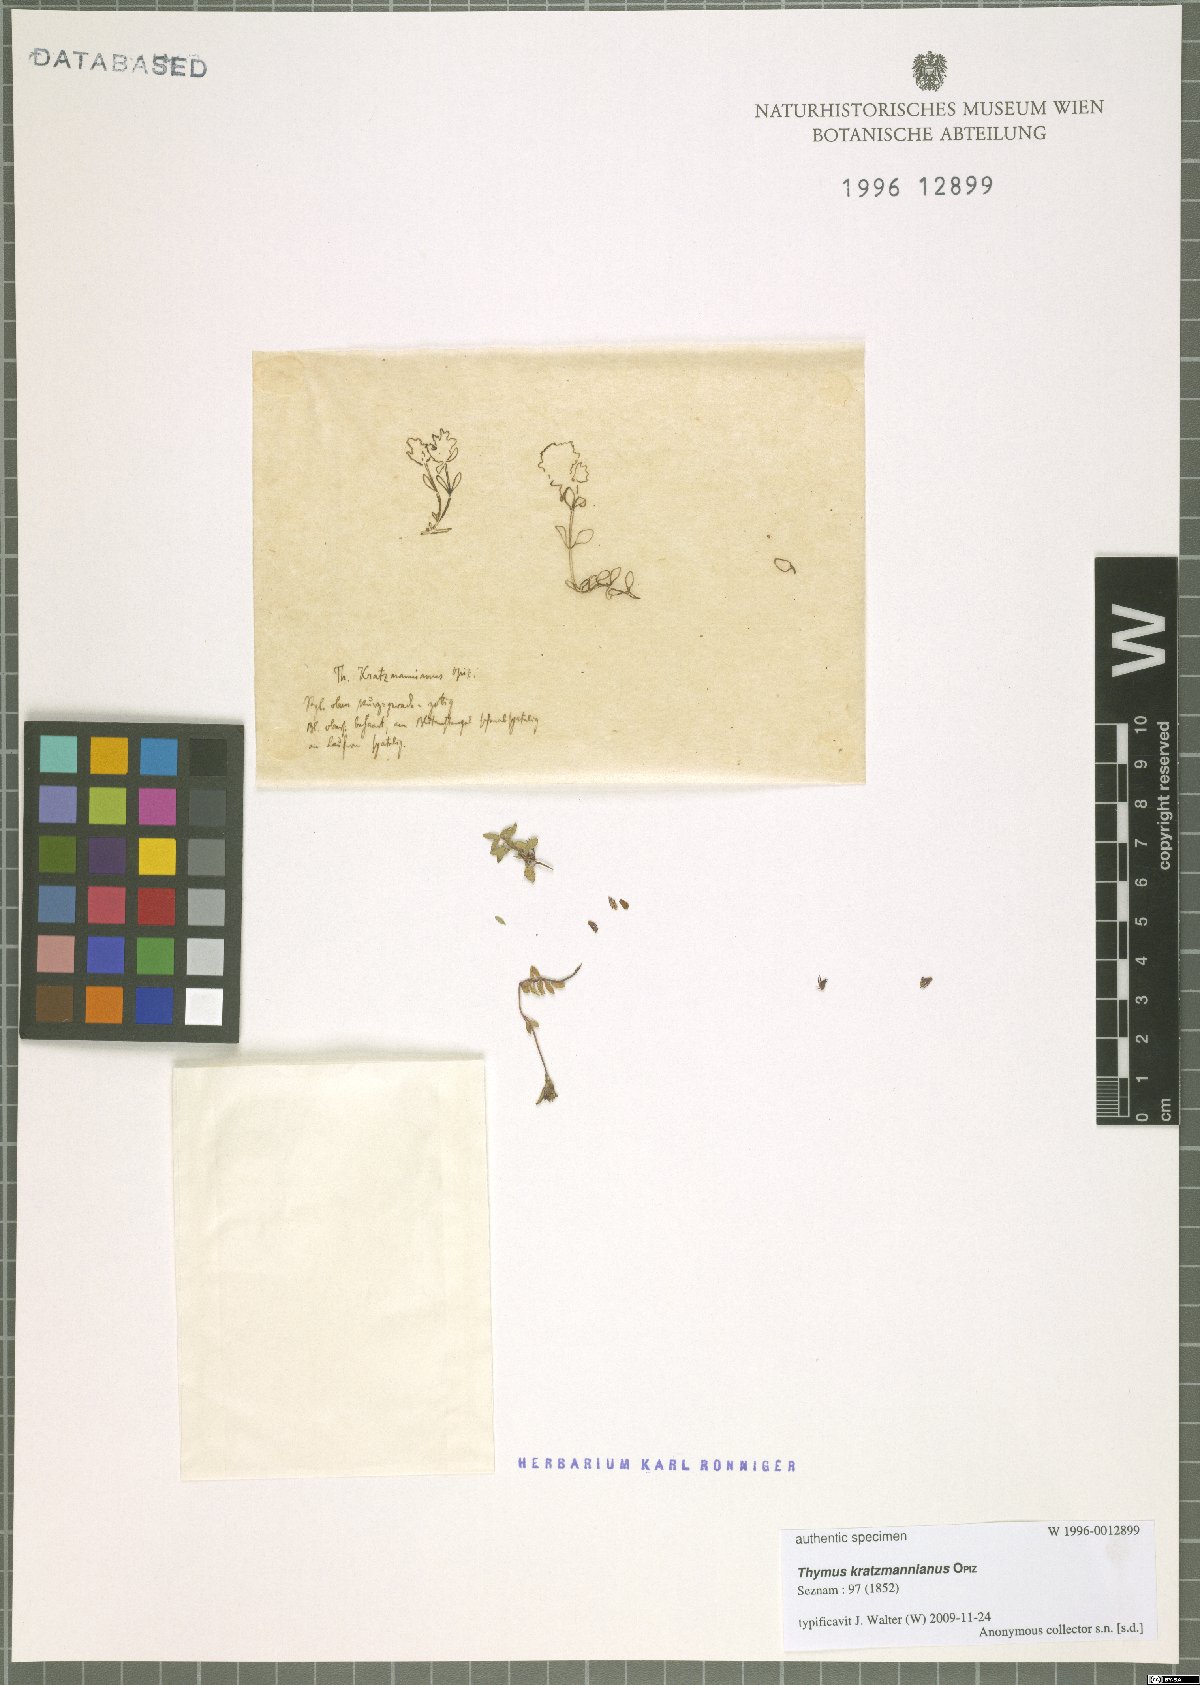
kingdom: Plantae
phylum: Tracheophyta
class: Magnoliopsida
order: Lamiales
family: Lamiaceae
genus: Thymus
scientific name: Thymus serpyllum
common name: Breckland thyme
